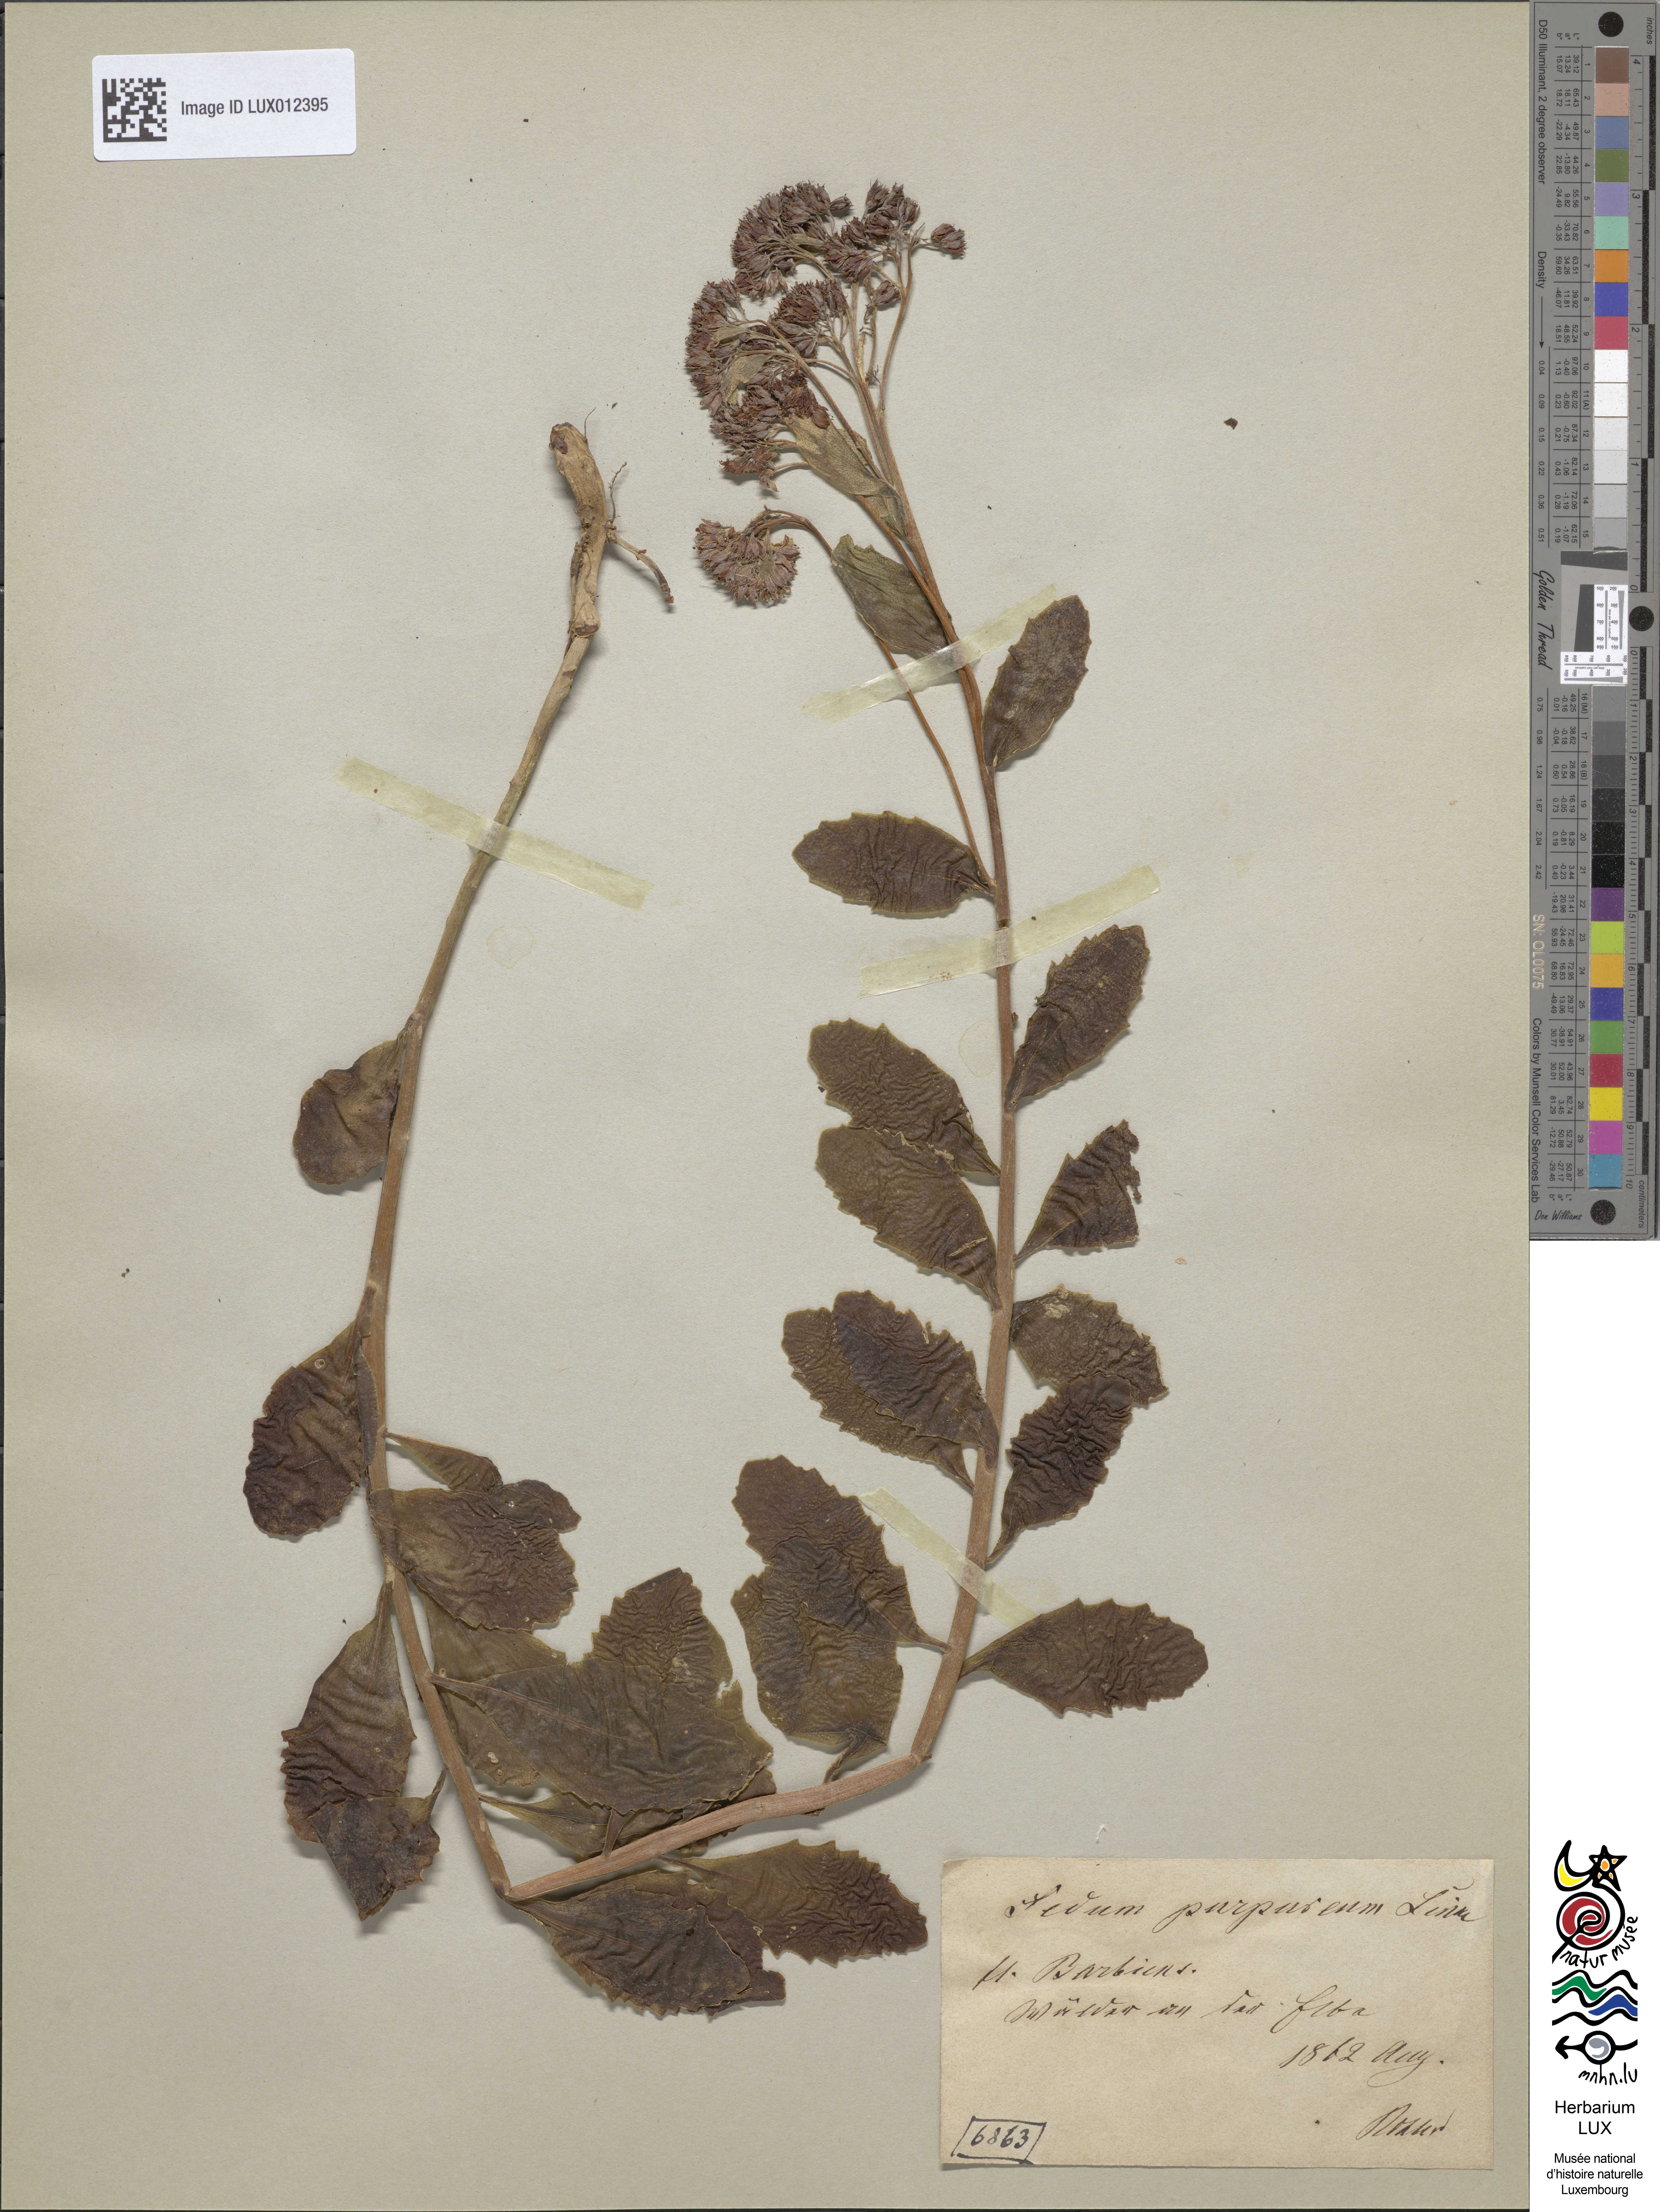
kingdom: Plantae
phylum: Tracheophyta
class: Magnoliopsida
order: Saxifragales
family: Crassulaceae
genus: Hylotelephium
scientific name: Hylotelephium telephium
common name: Live-forever
